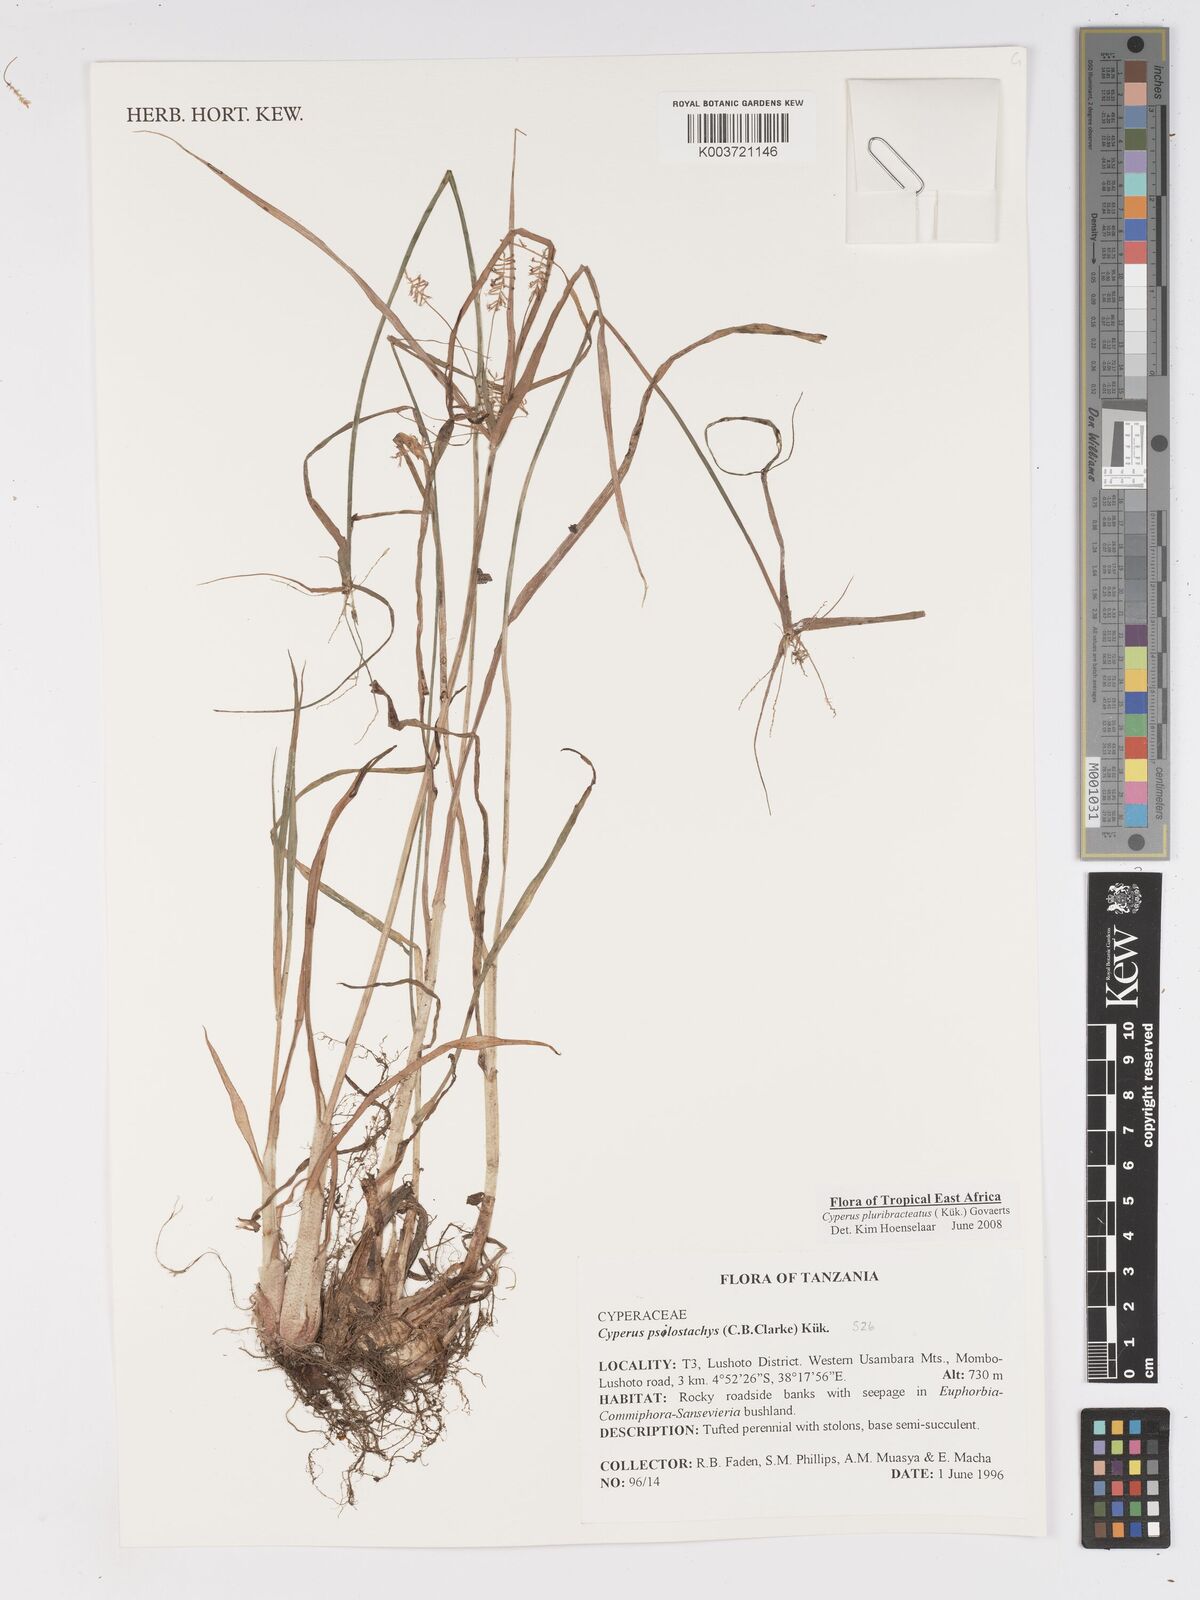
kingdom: Plantae
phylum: Tracheophyta
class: Liliopsida
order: Poales
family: Cyperaceae
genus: Cyperus
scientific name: Cyperus trigonellus
